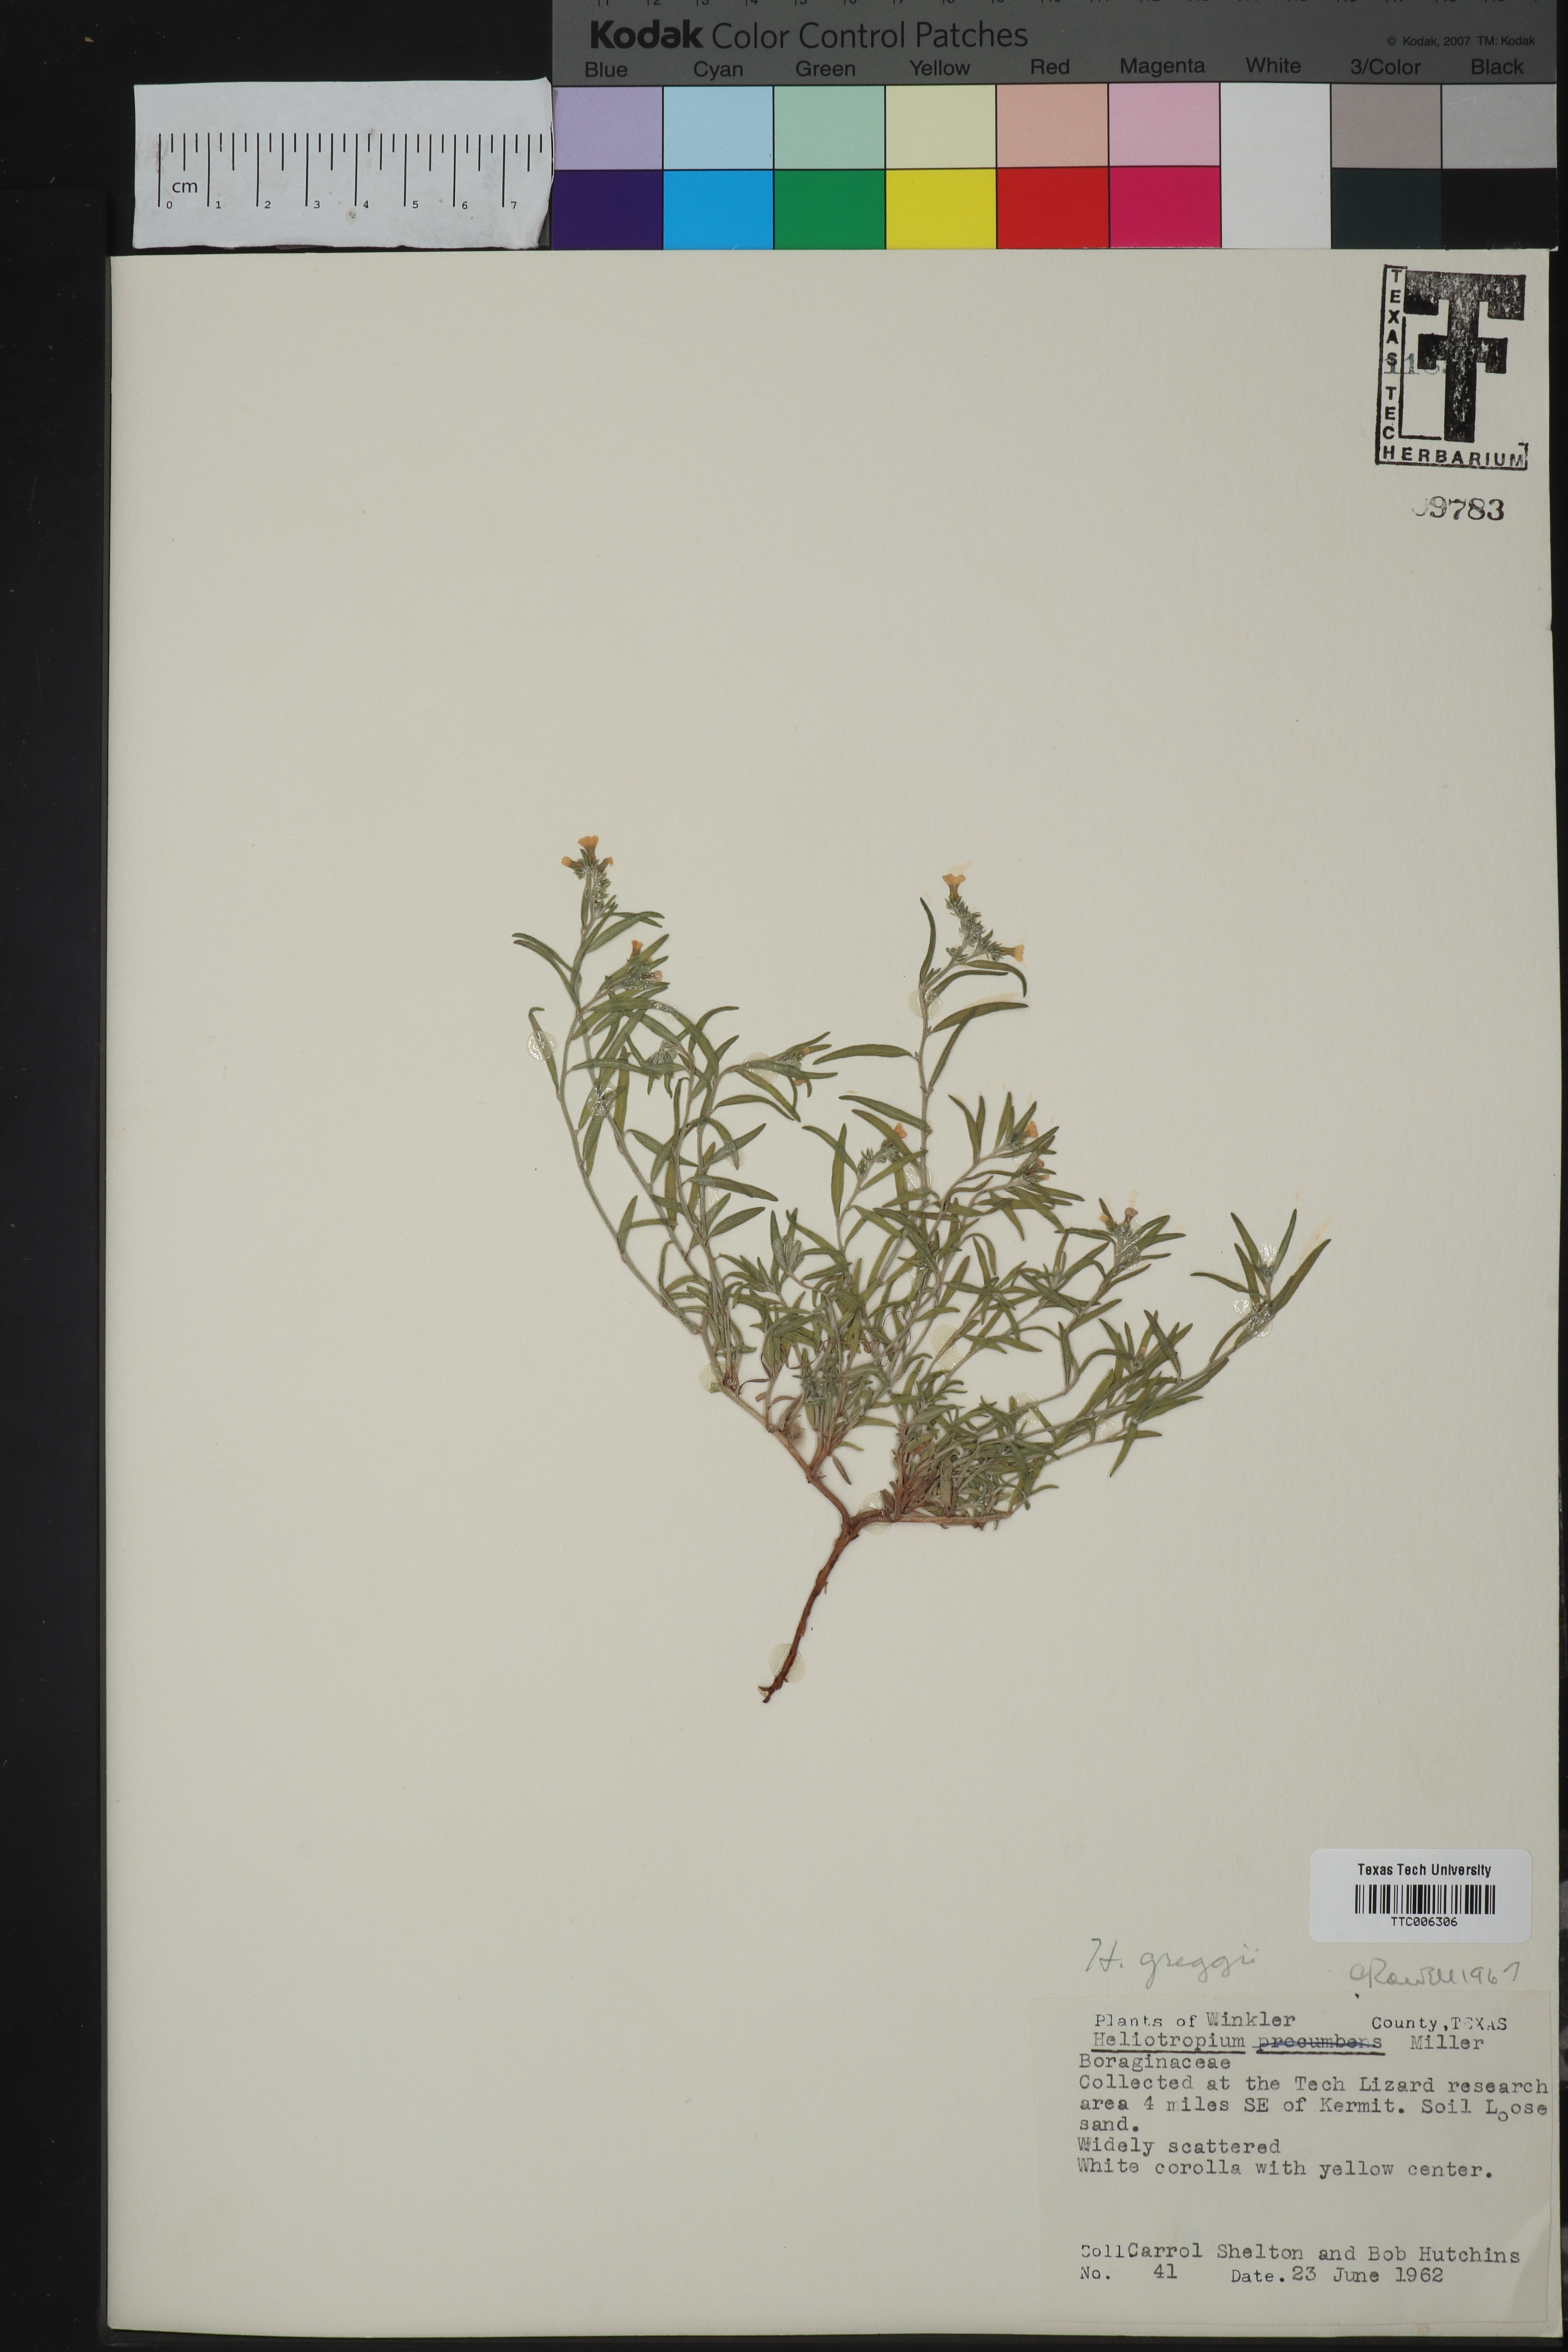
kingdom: Plantae
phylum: Tracheophyta
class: Magnoliopsida
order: Boraginales
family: Heliotropiaceae
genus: Euploca
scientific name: Euploca greggii
